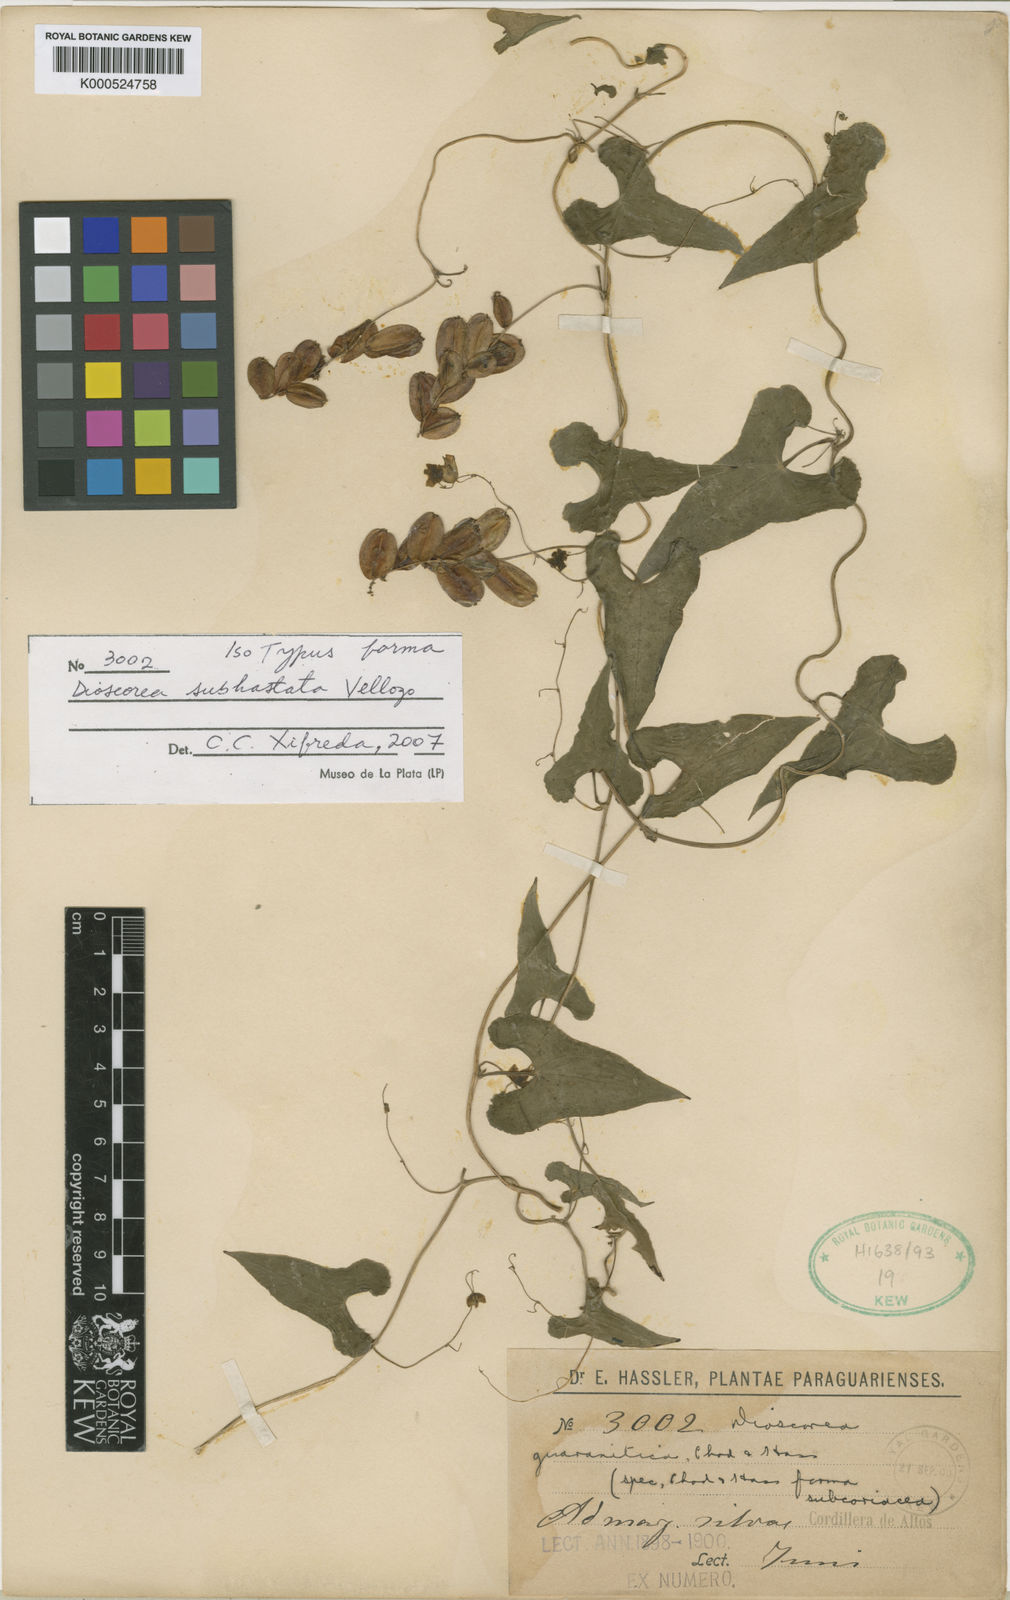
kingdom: Plantae
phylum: Tracheophyta
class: Liliopsida
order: Dioscoreales
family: Dioscoreaceae
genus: Dioscorea
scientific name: Dioscorea subhastata
